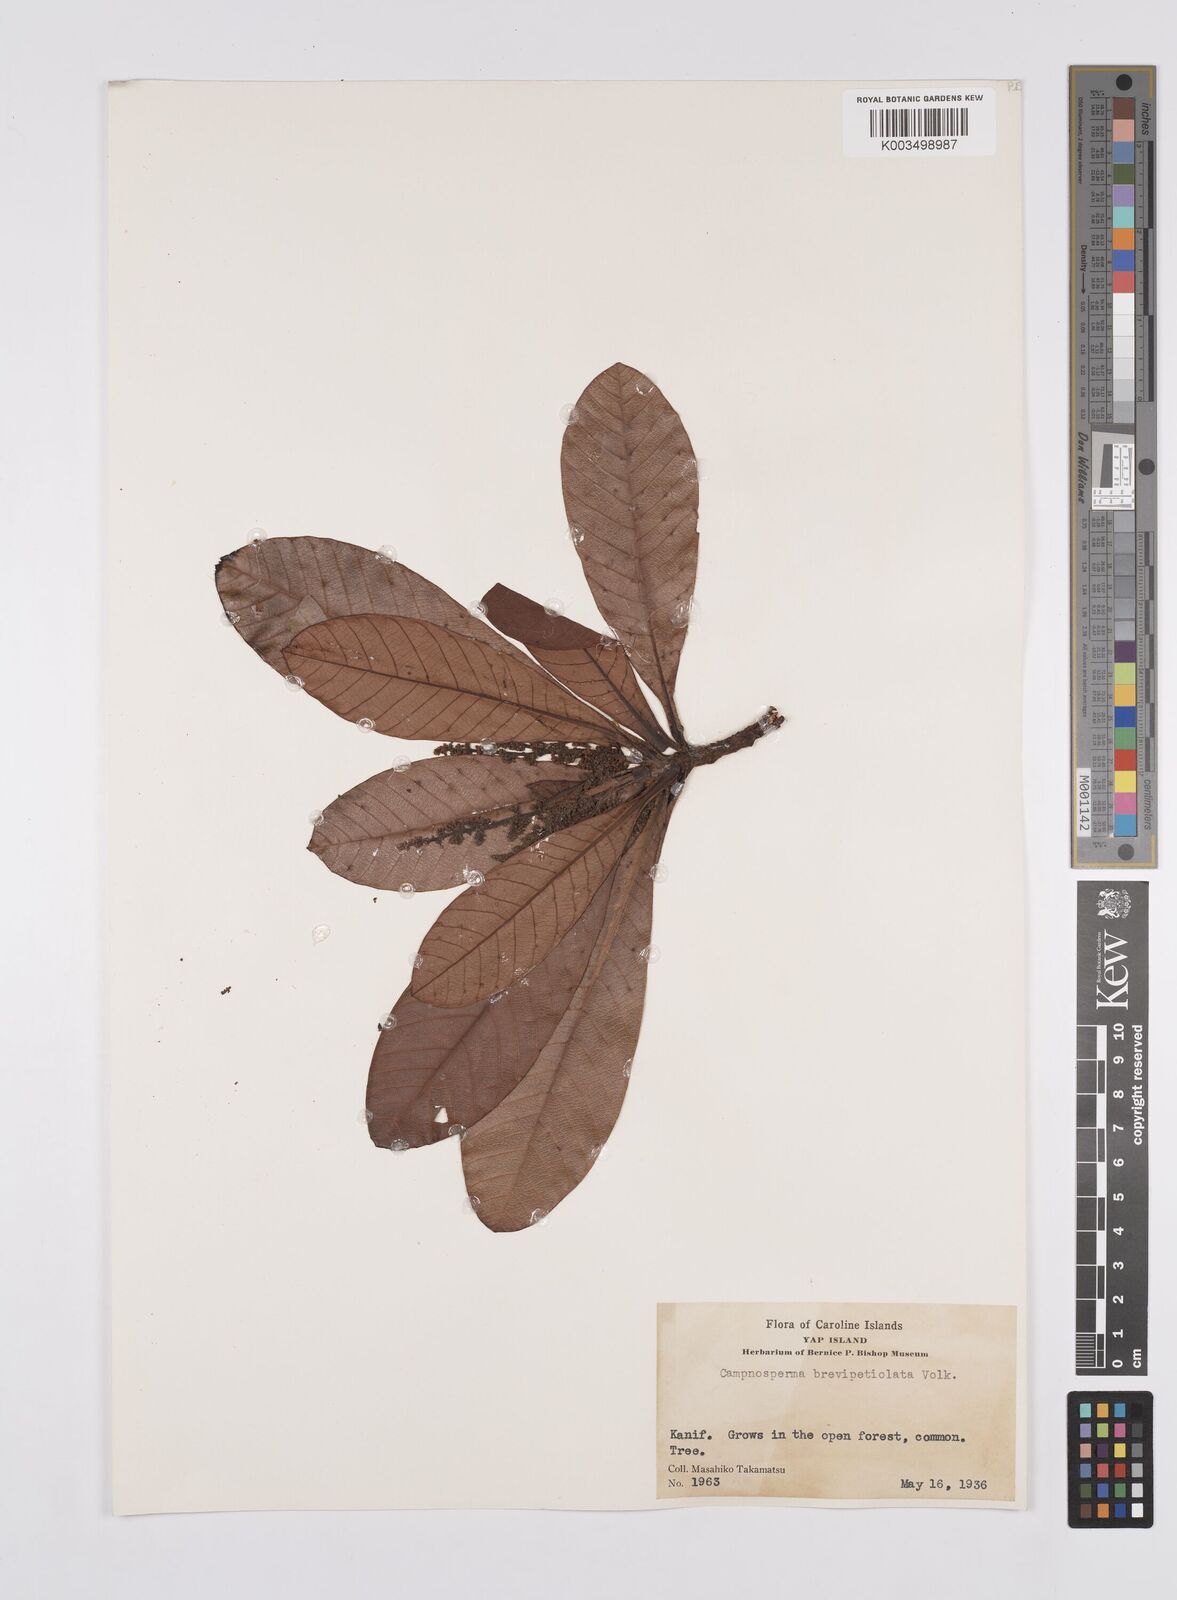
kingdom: Plantae
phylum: Tracheophyta
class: Magnoliopsida
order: Sapindales
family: Anacardiaceae
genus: Campnosperma
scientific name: Campnosperma brevipetiolatum
